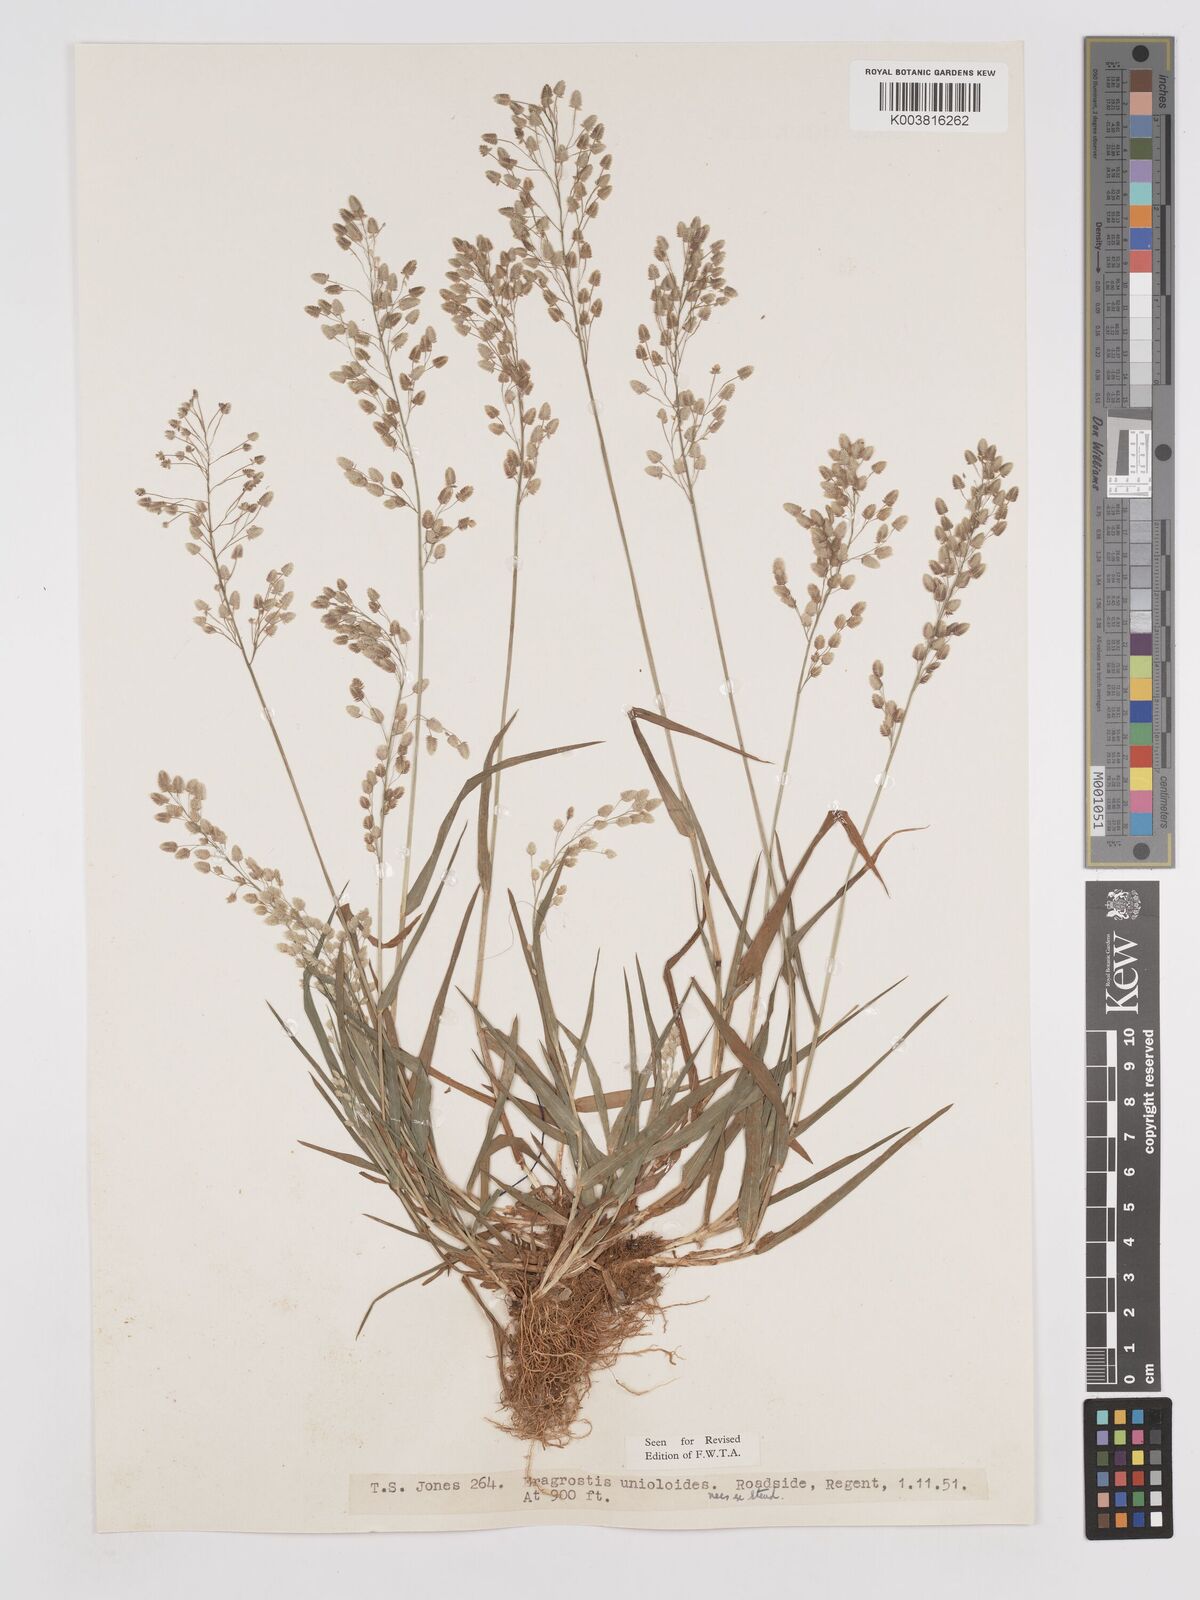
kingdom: Plantae
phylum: Tracheophyta
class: Liliopsida
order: Poales
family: Poaceae
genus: Eragrostis
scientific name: Eragrostis unioloides
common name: Chinese lovegrass
